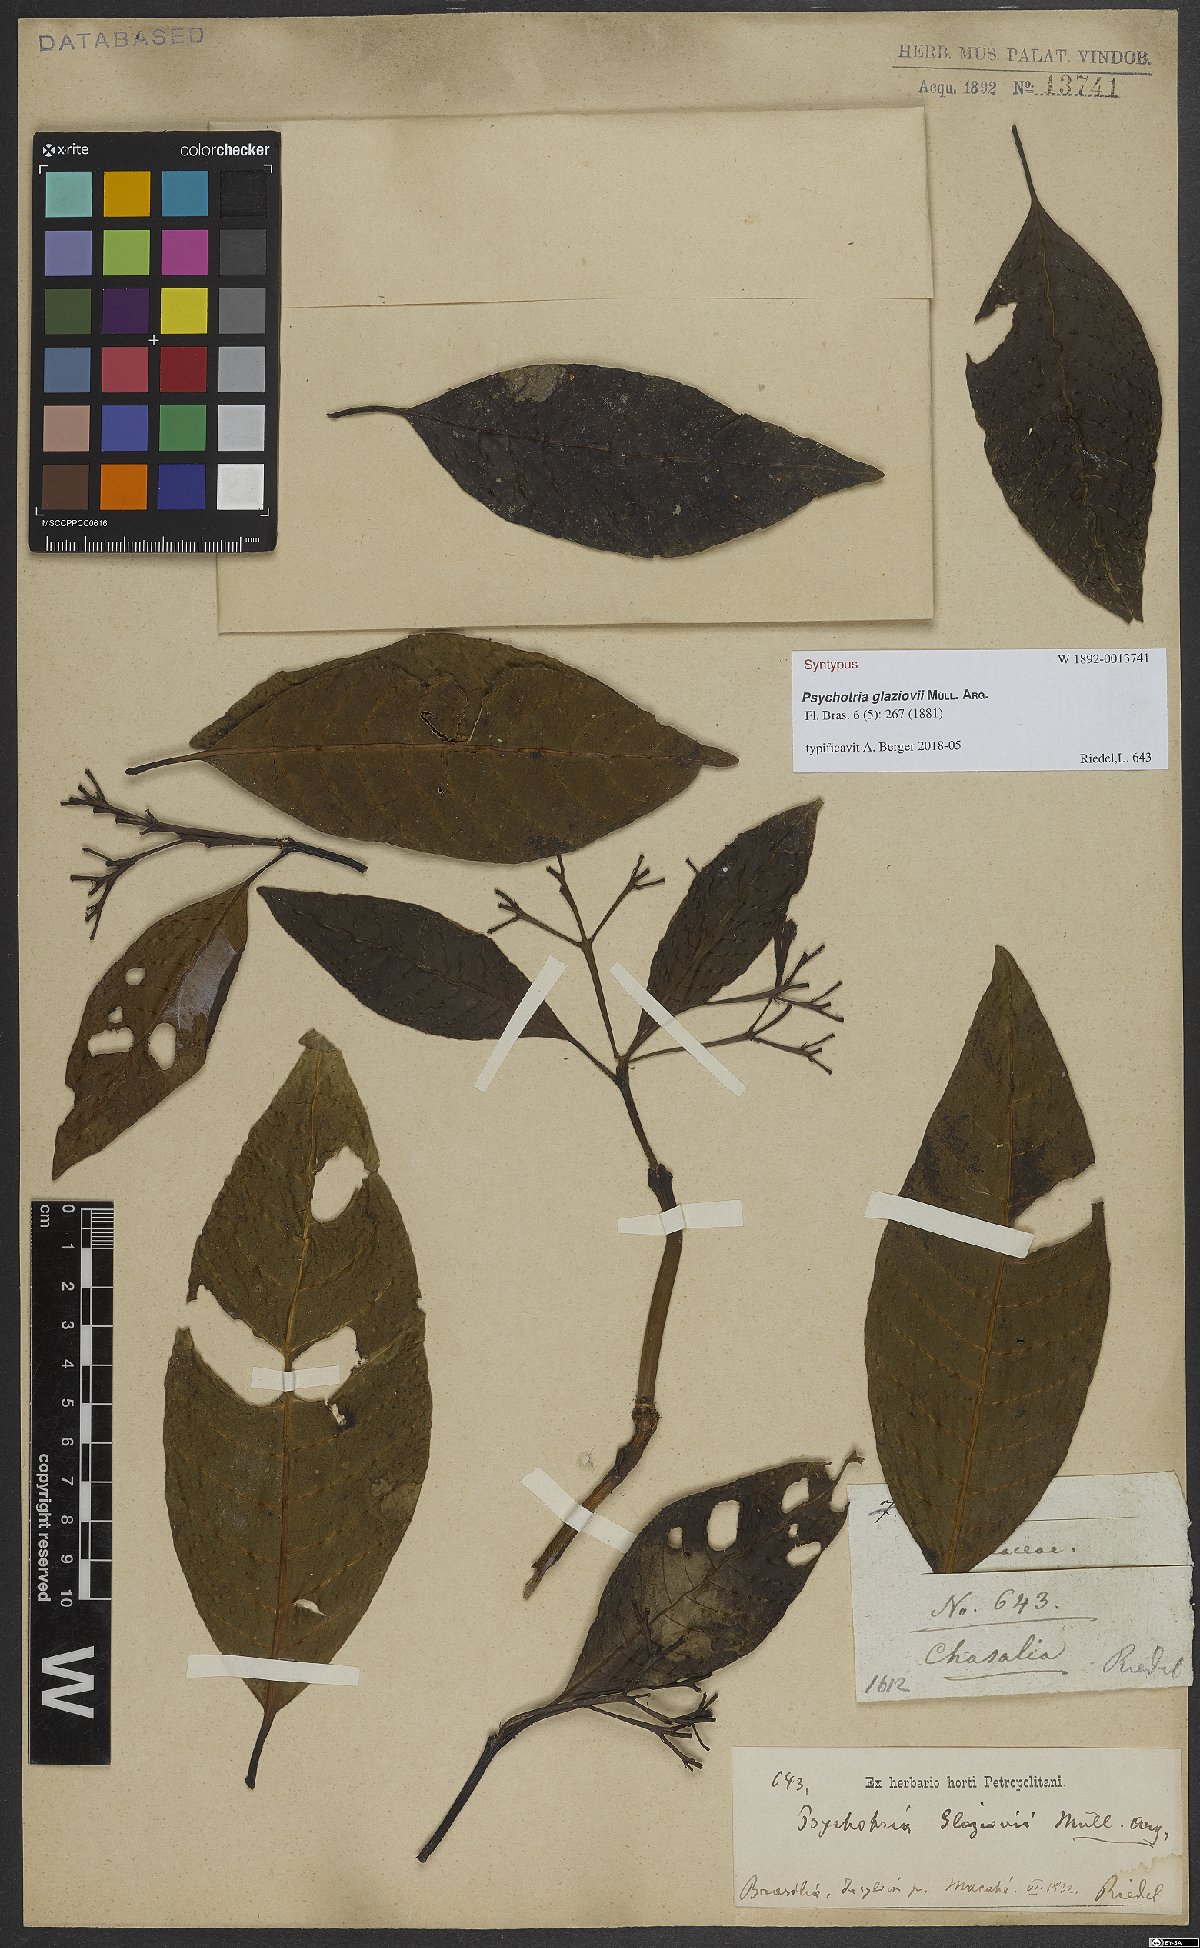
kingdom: Plantae
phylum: Tracheophyta
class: Magnoliopsida
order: Gentianales
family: Rubiaceae
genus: Psychotria
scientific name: Psychotria glaziovii
